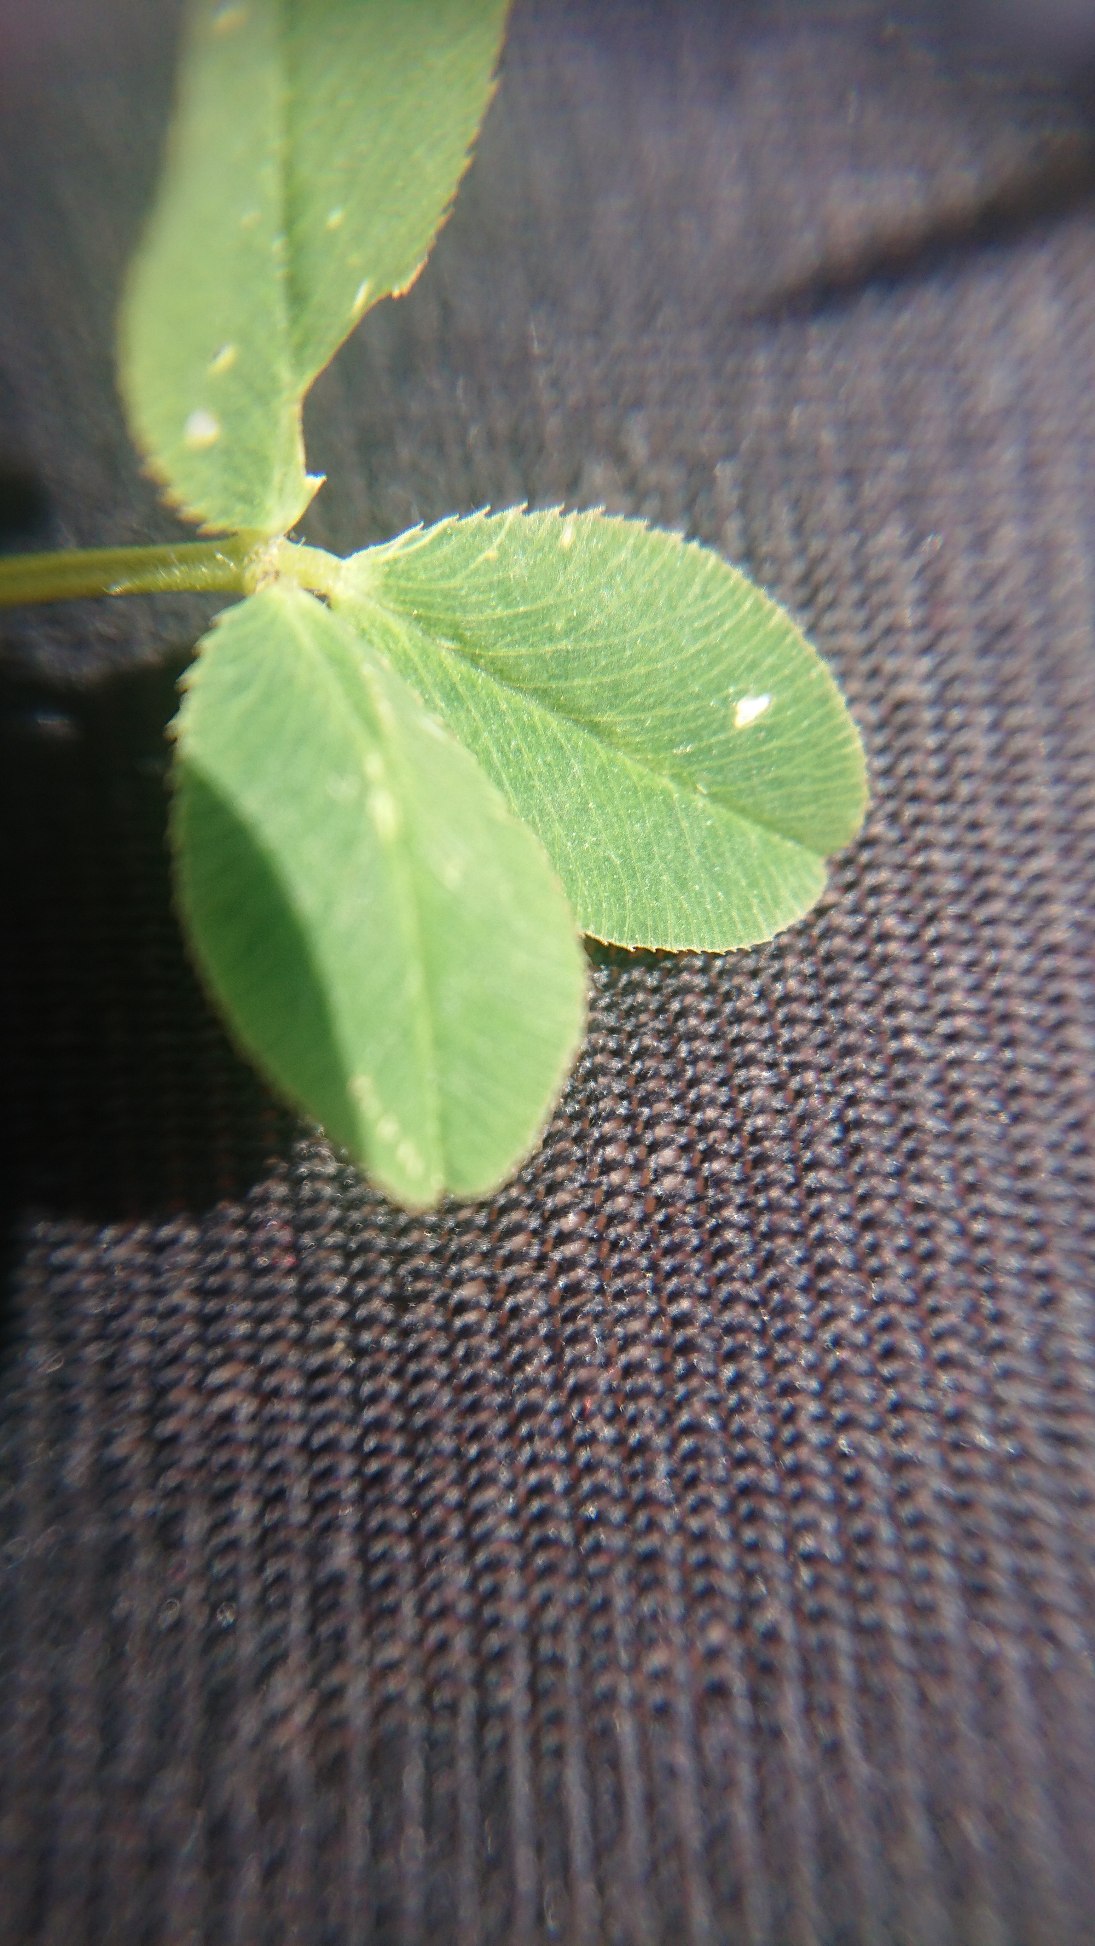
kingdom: Plantae
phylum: Tracheophyta
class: Magnoliopsida
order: Fabales
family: Fabaceae
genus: Trifolium
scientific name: Trifolium fragiferum
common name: Jordbær-kløver
